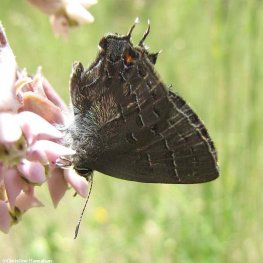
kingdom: Animalia
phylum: Arthropoda
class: Insecta
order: Lepidoptera
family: Lycaenidae
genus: Satyrium
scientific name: Satyrium calanus
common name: Banded Hairstreak
